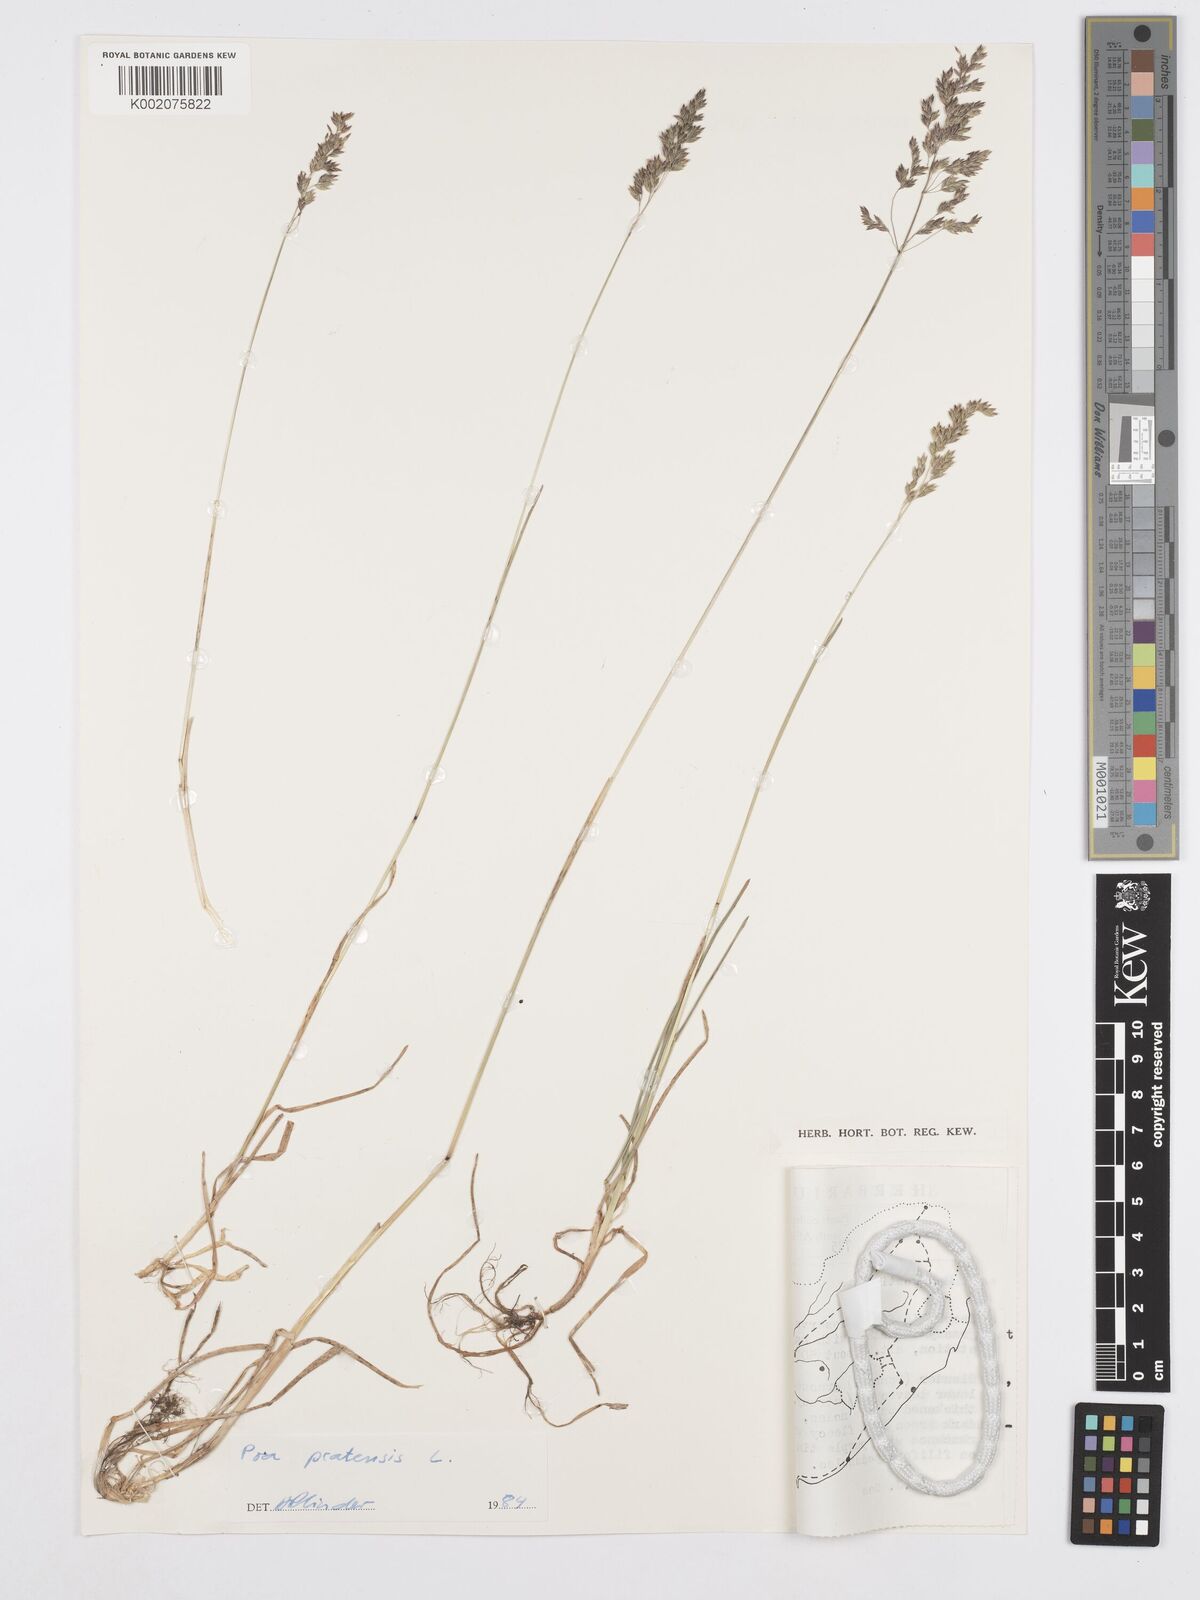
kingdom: Plantae
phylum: Tracheophyta
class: Liliopsida
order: Poales
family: Poaceae
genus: Poa
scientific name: Poa pratensis
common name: Kentucky bluegrass
